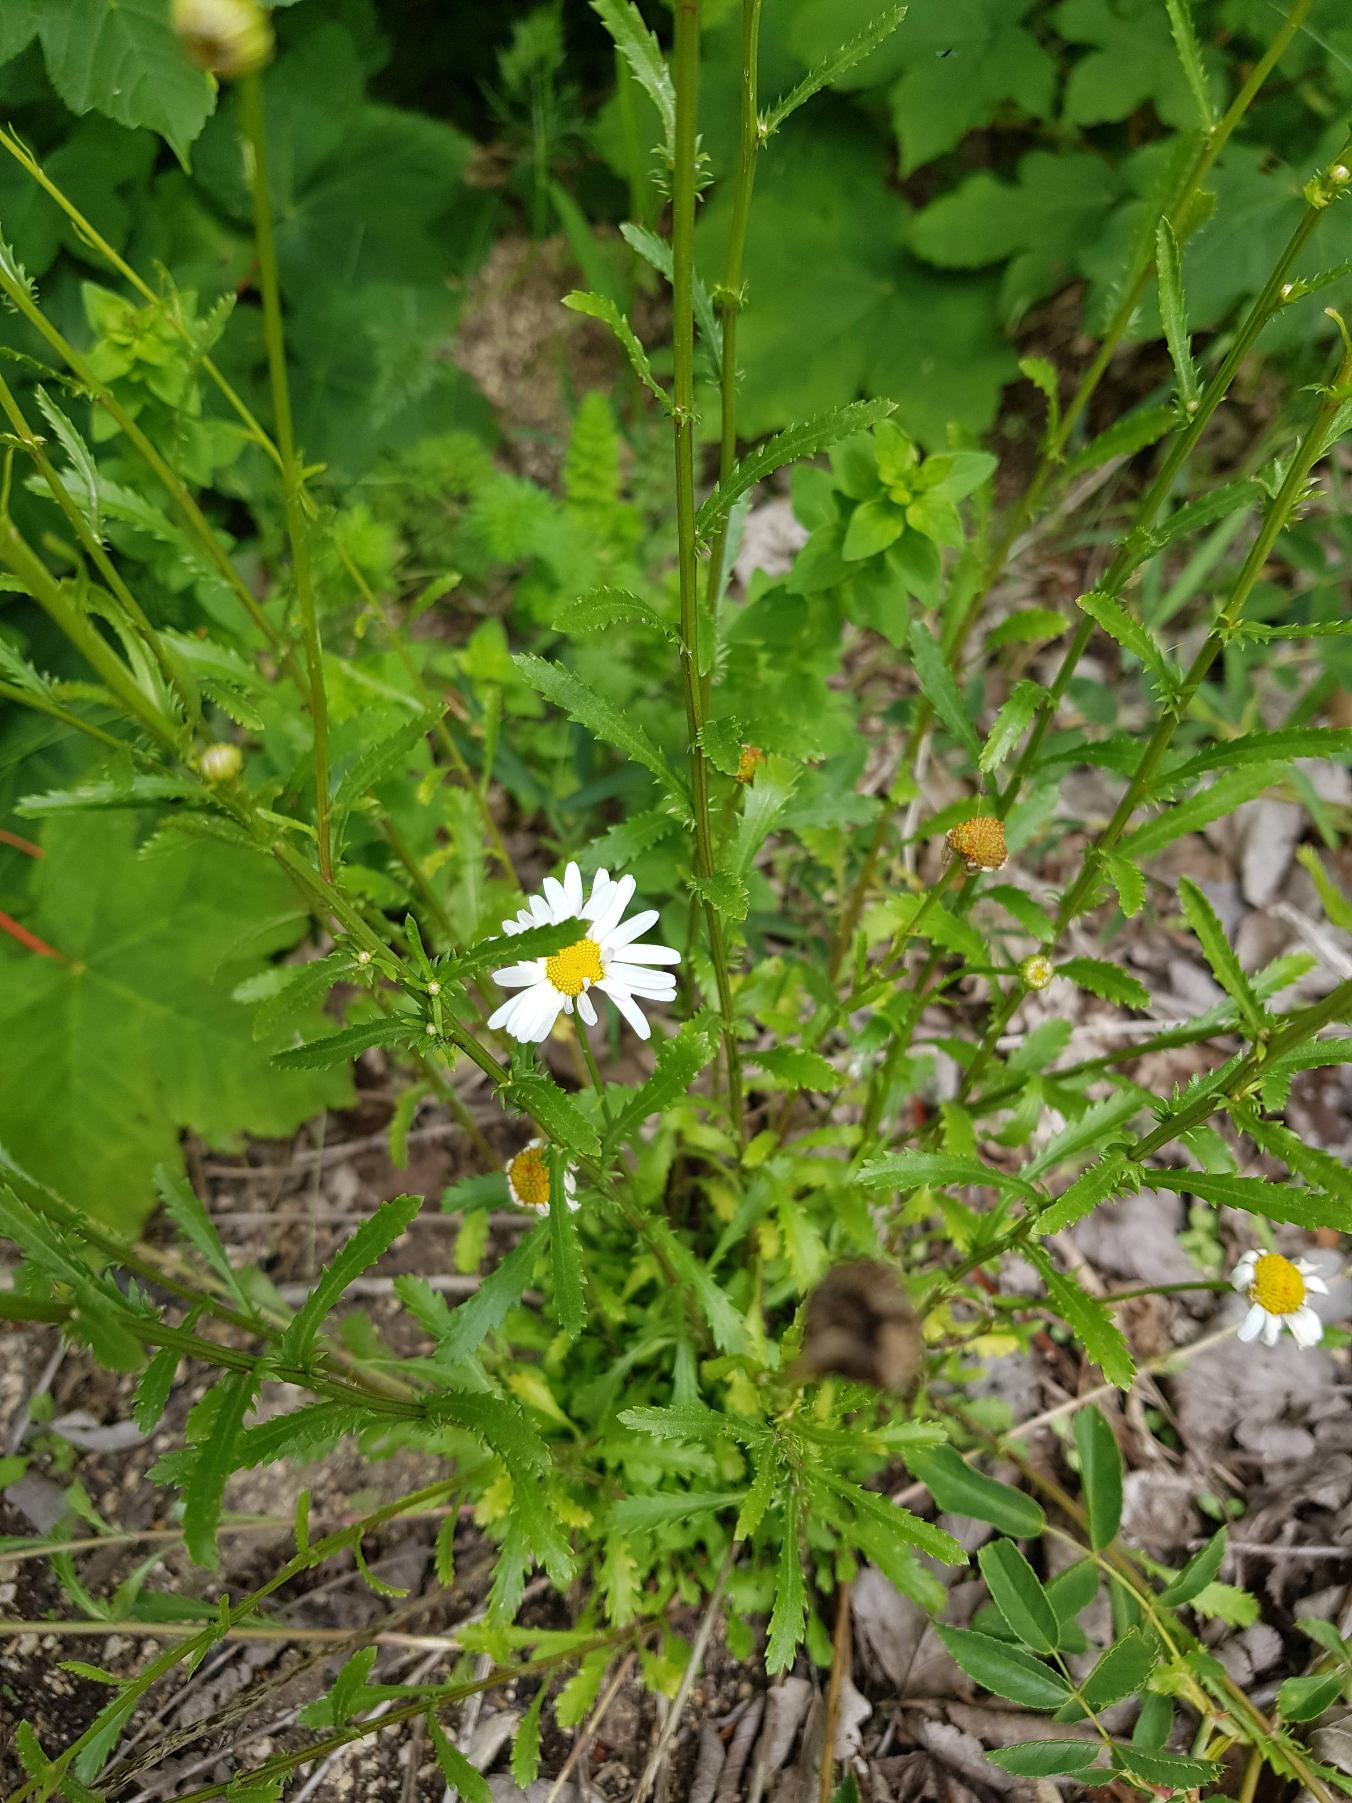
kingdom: Plantae
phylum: Tracheophyta
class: Magnoliopsida
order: Asterales
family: Asteraceae
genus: Leucanthemum
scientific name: Leucanthemum vulgare
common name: Hvid okseøje
